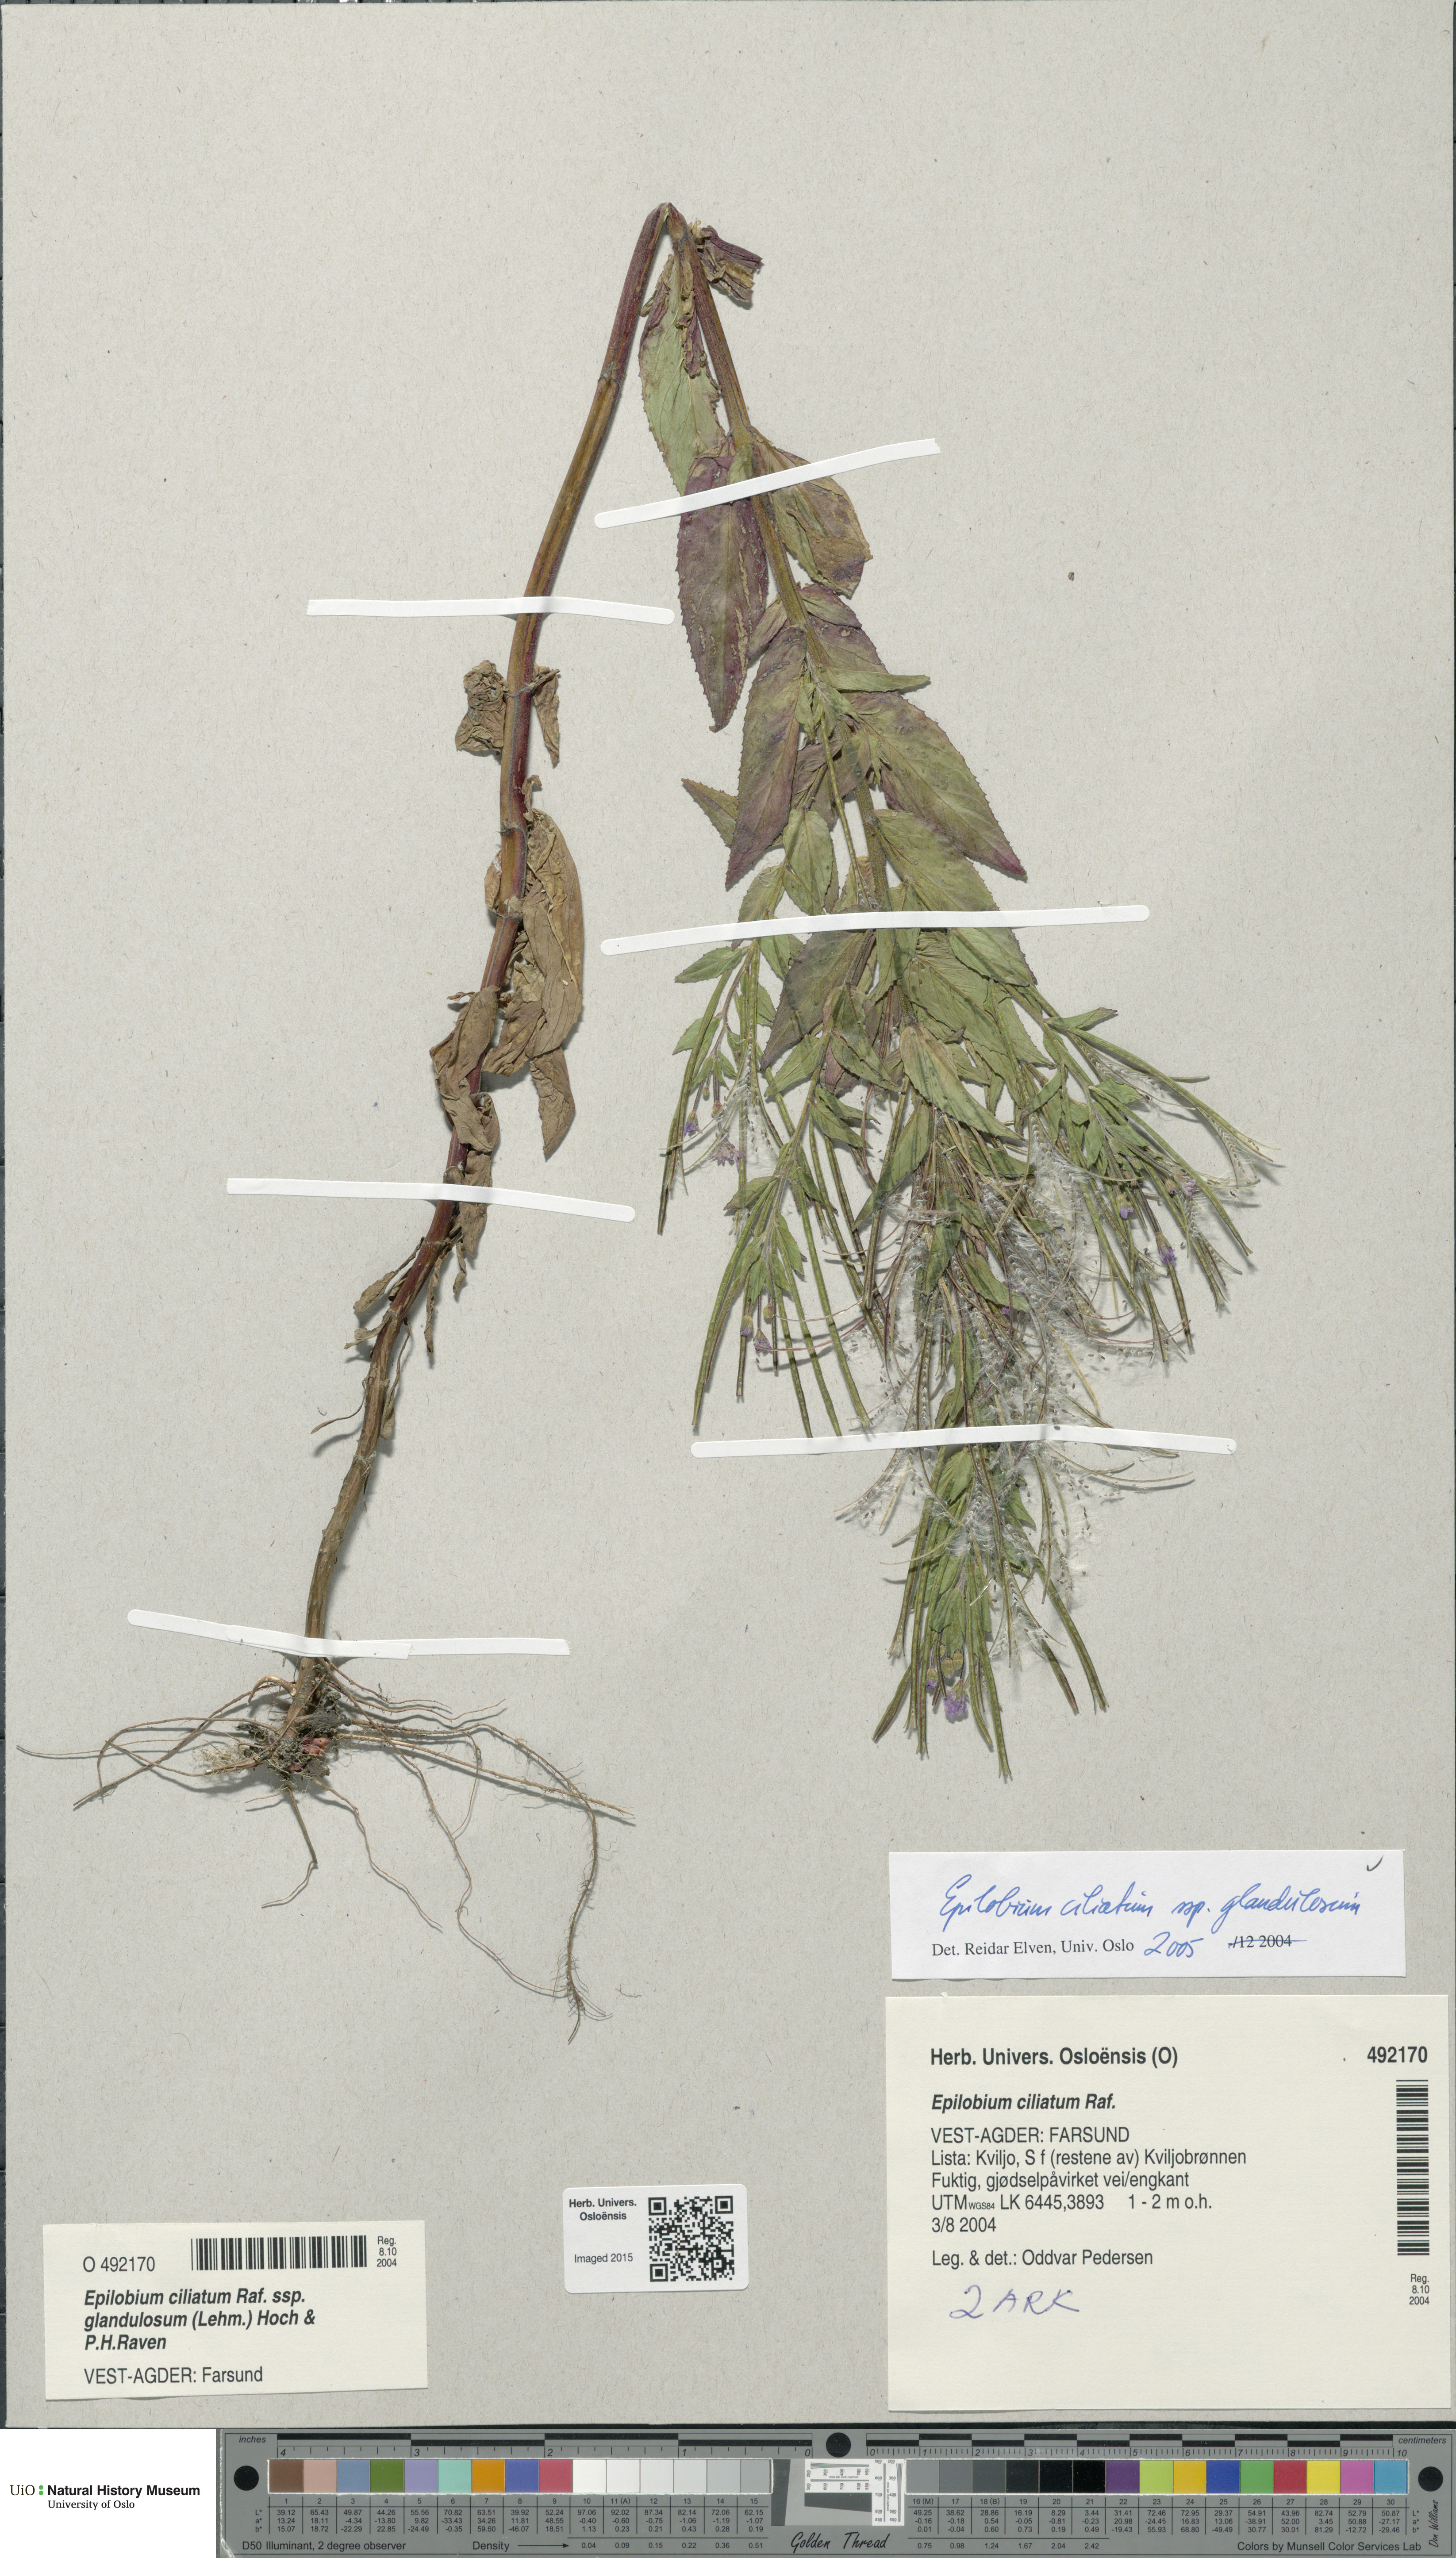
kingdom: Plantae
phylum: Tracheophyta
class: Magnoliopsida
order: Myrtales
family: Onagraceae
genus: Epilobium
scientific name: Epilobium ciliatum
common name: American willowherb
